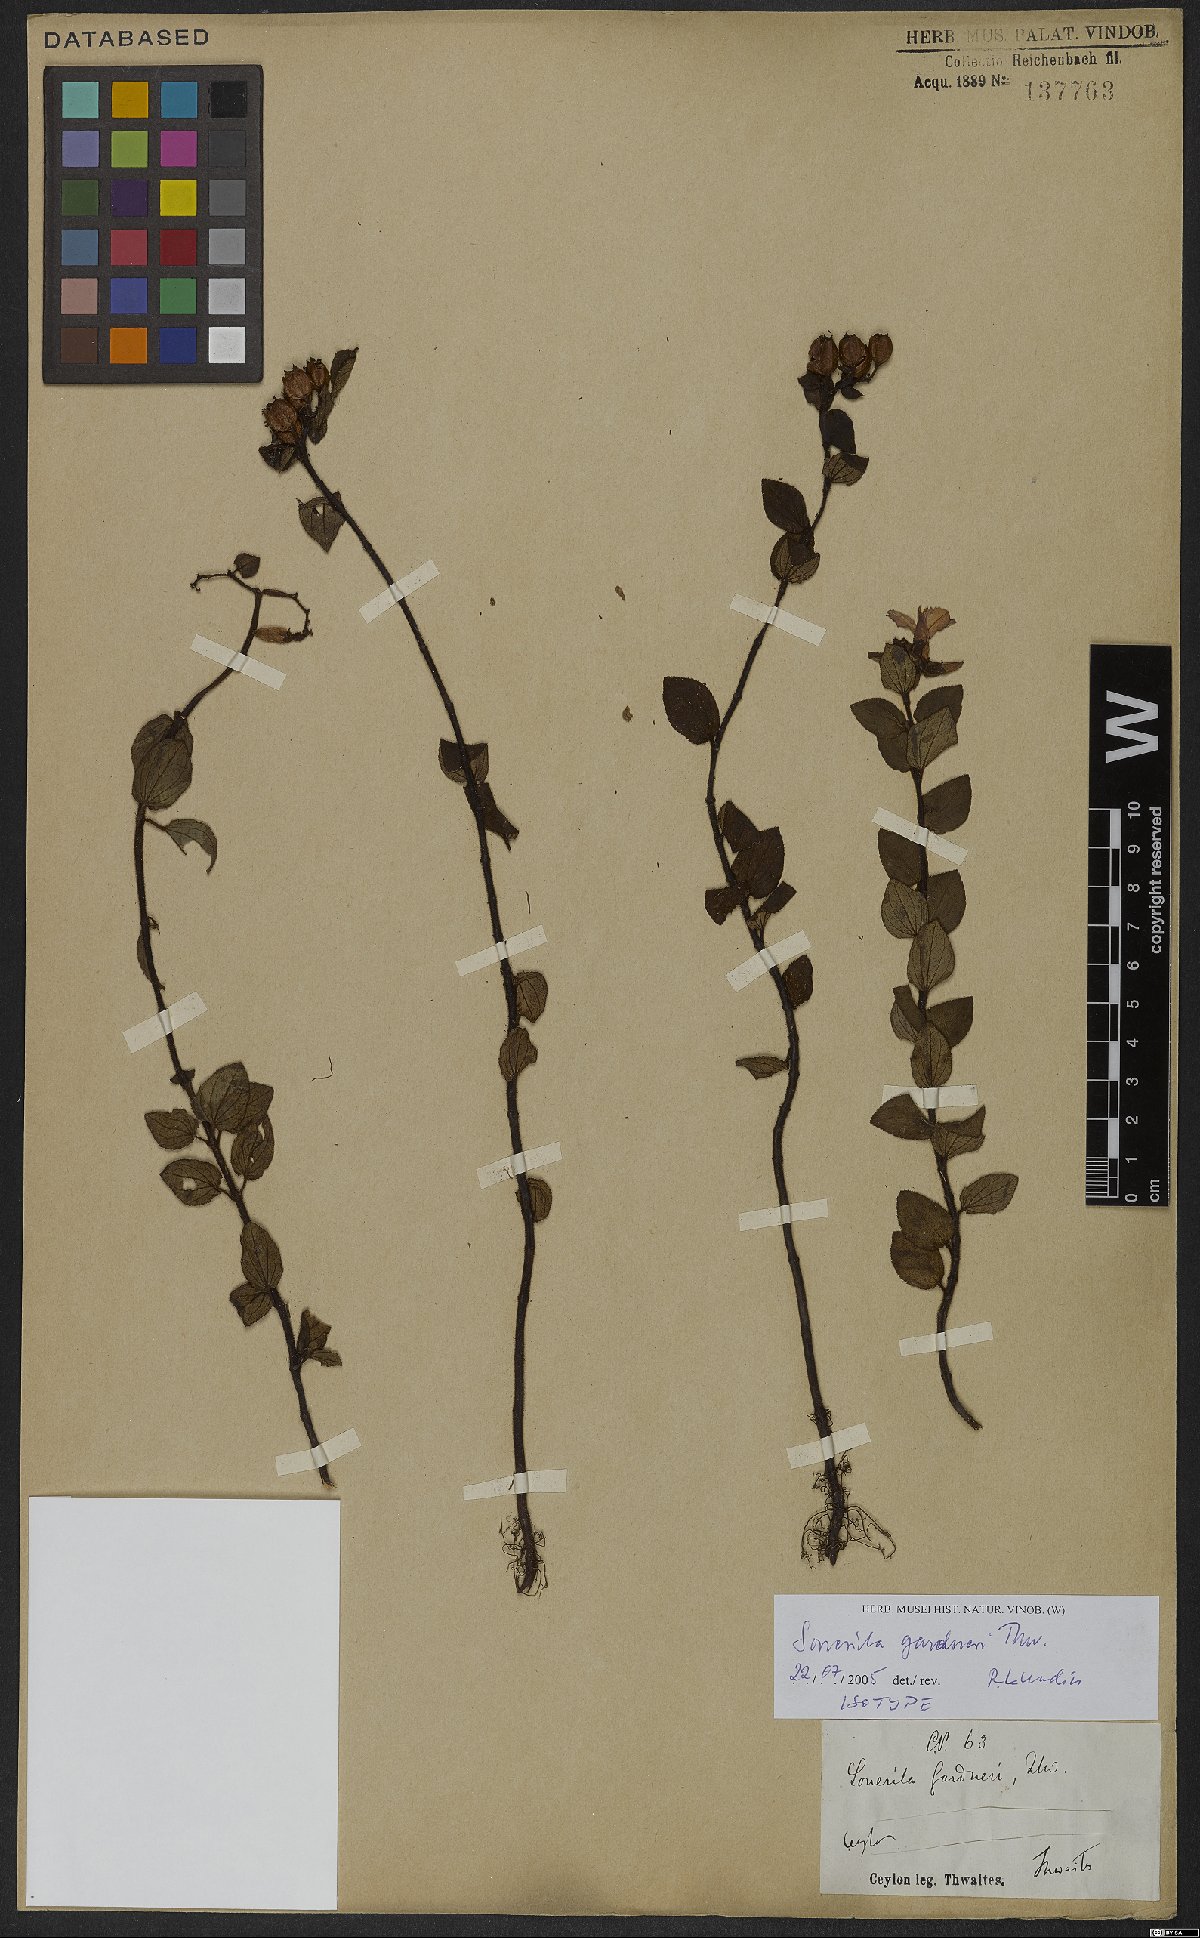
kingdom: Plantae
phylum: Tracheophyta
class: Magnoliopsida
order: Myrtales
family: Melastomataceae
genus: Sonerila
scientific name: Sonerila gardneri
